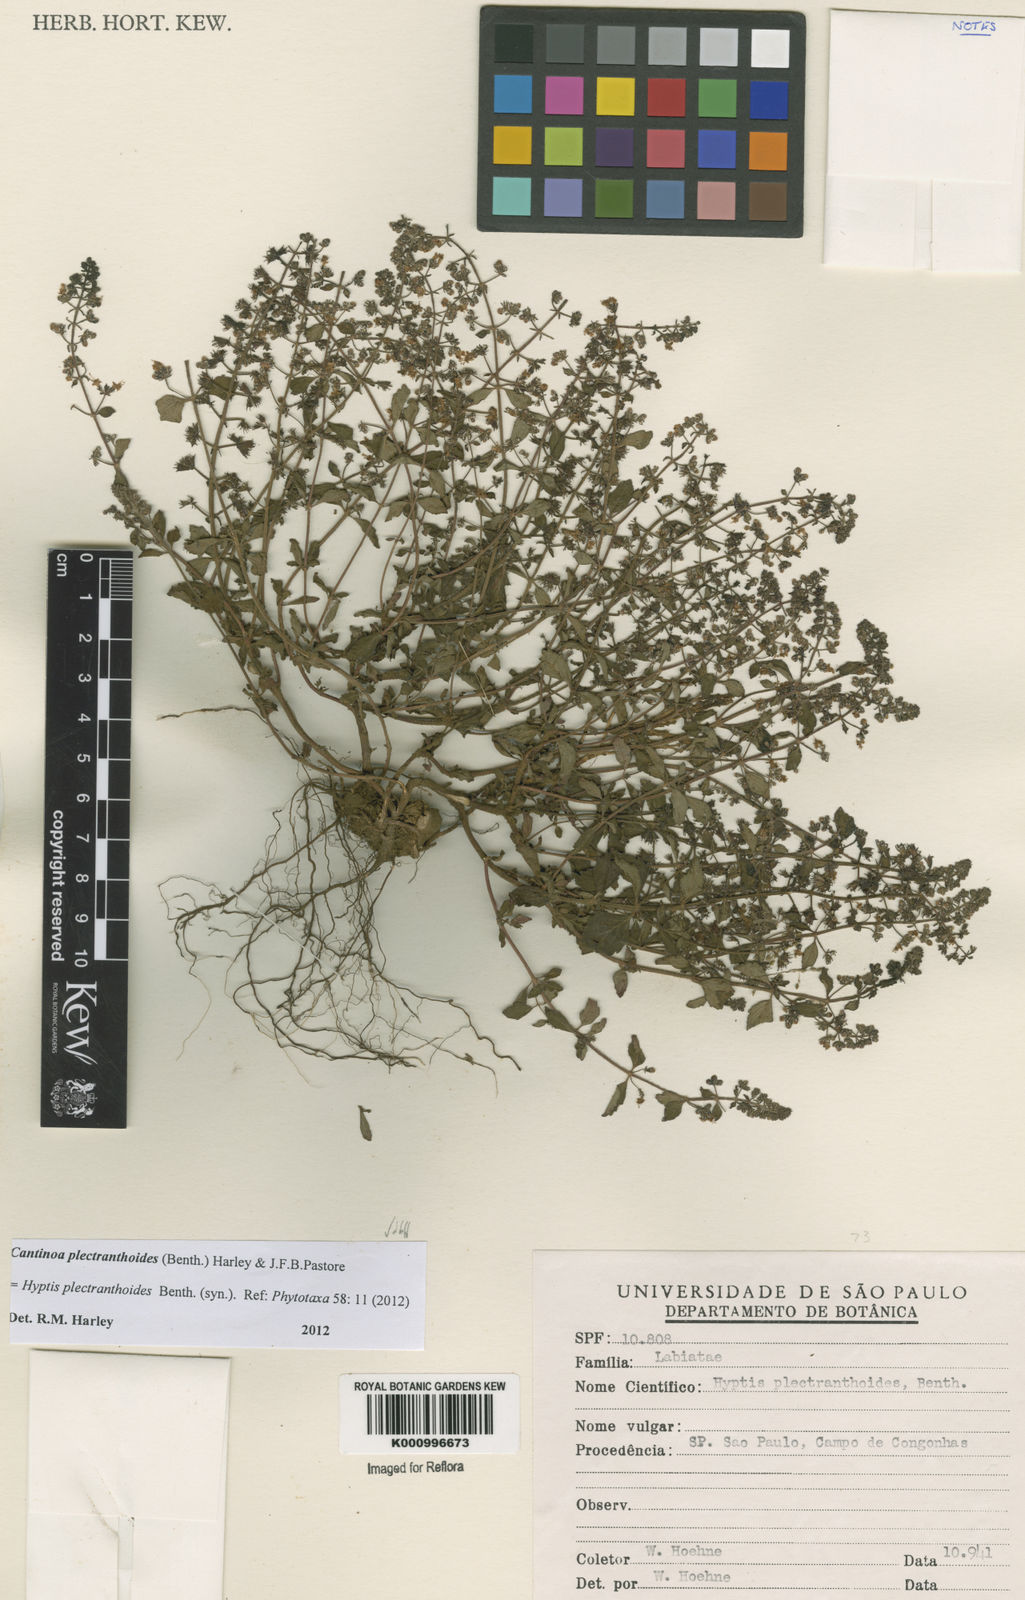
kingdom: Plantae
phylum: Tracheophyta
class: Magnoliopsida
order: Lamiales
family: Lamiaceae
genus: Cantinoa
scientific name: Cantinoa plectranthoides
